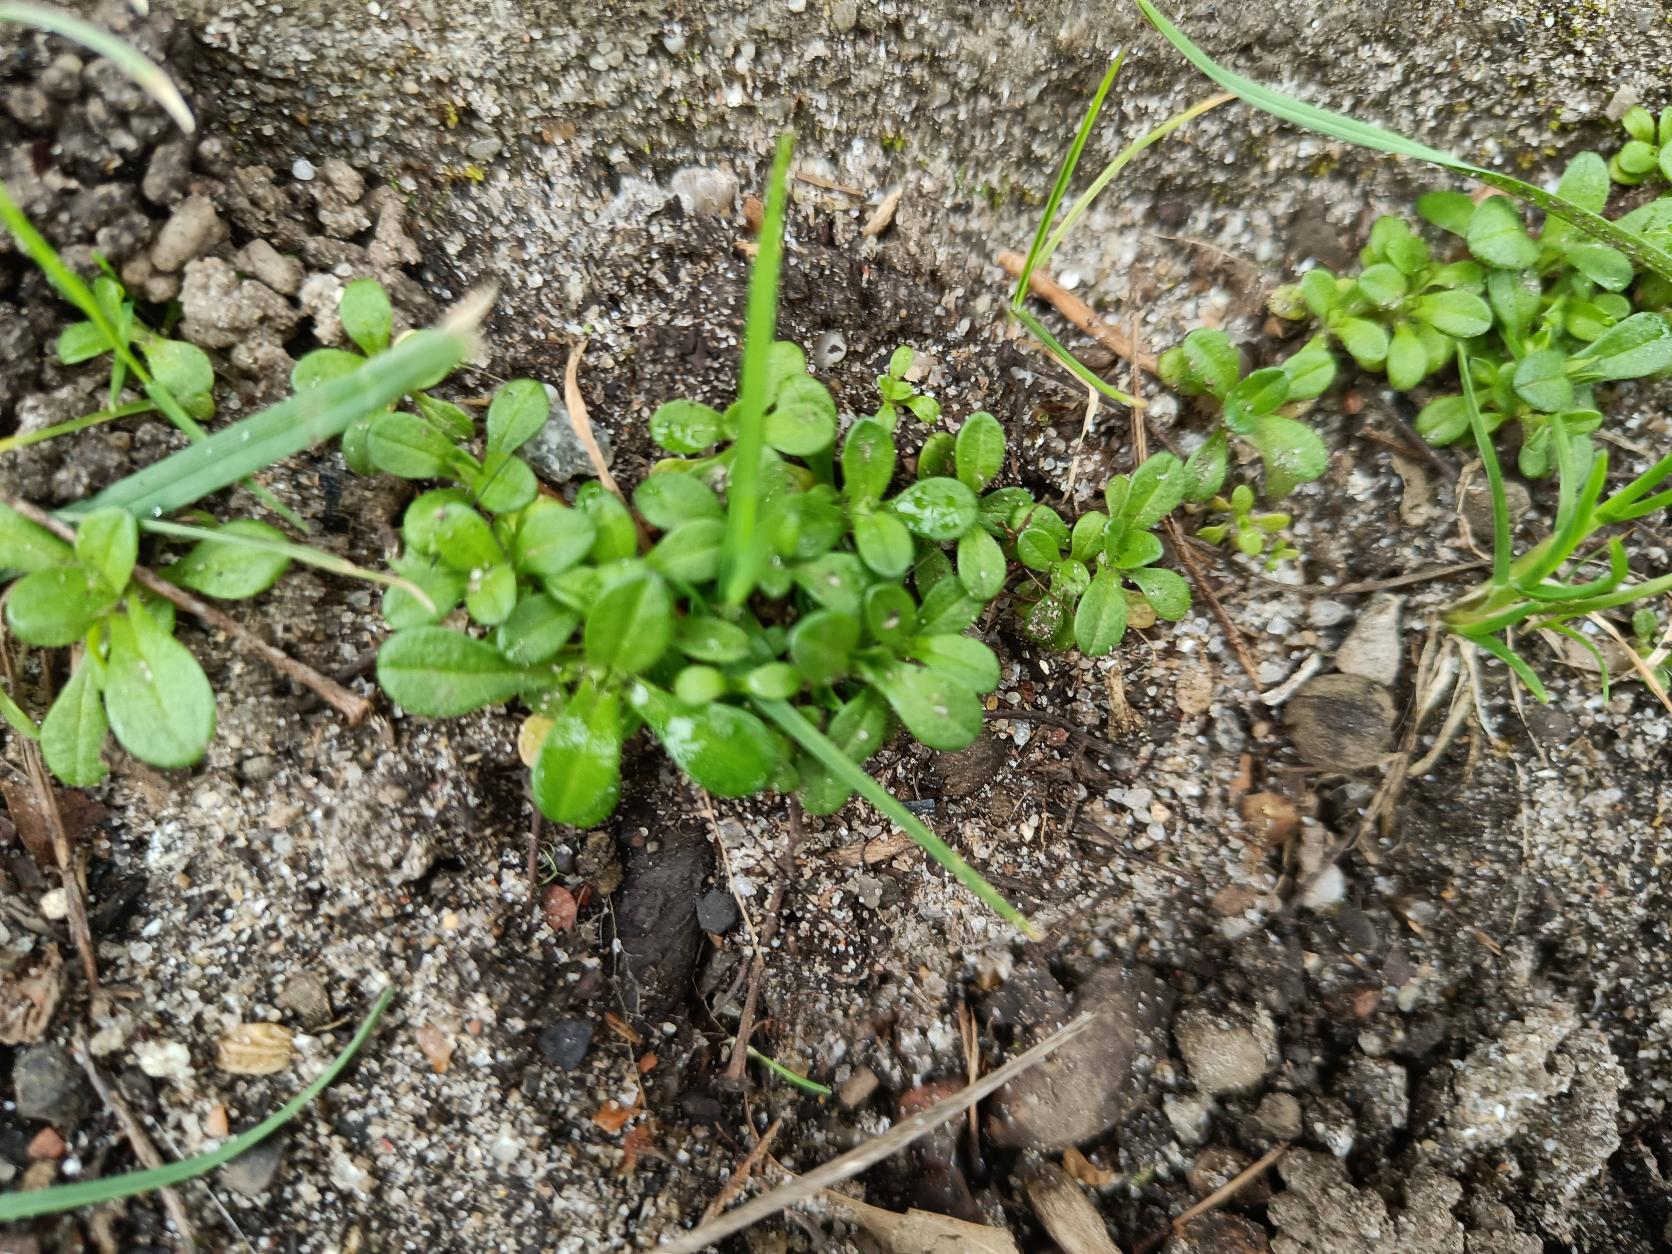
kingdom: Plantae
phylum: Tracheophyta
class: Magnoliopsida
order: Caryophyllales
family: Caryophyllaceae
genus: Cerastium
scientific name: Cerastium
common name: Hønsetarmslægten
